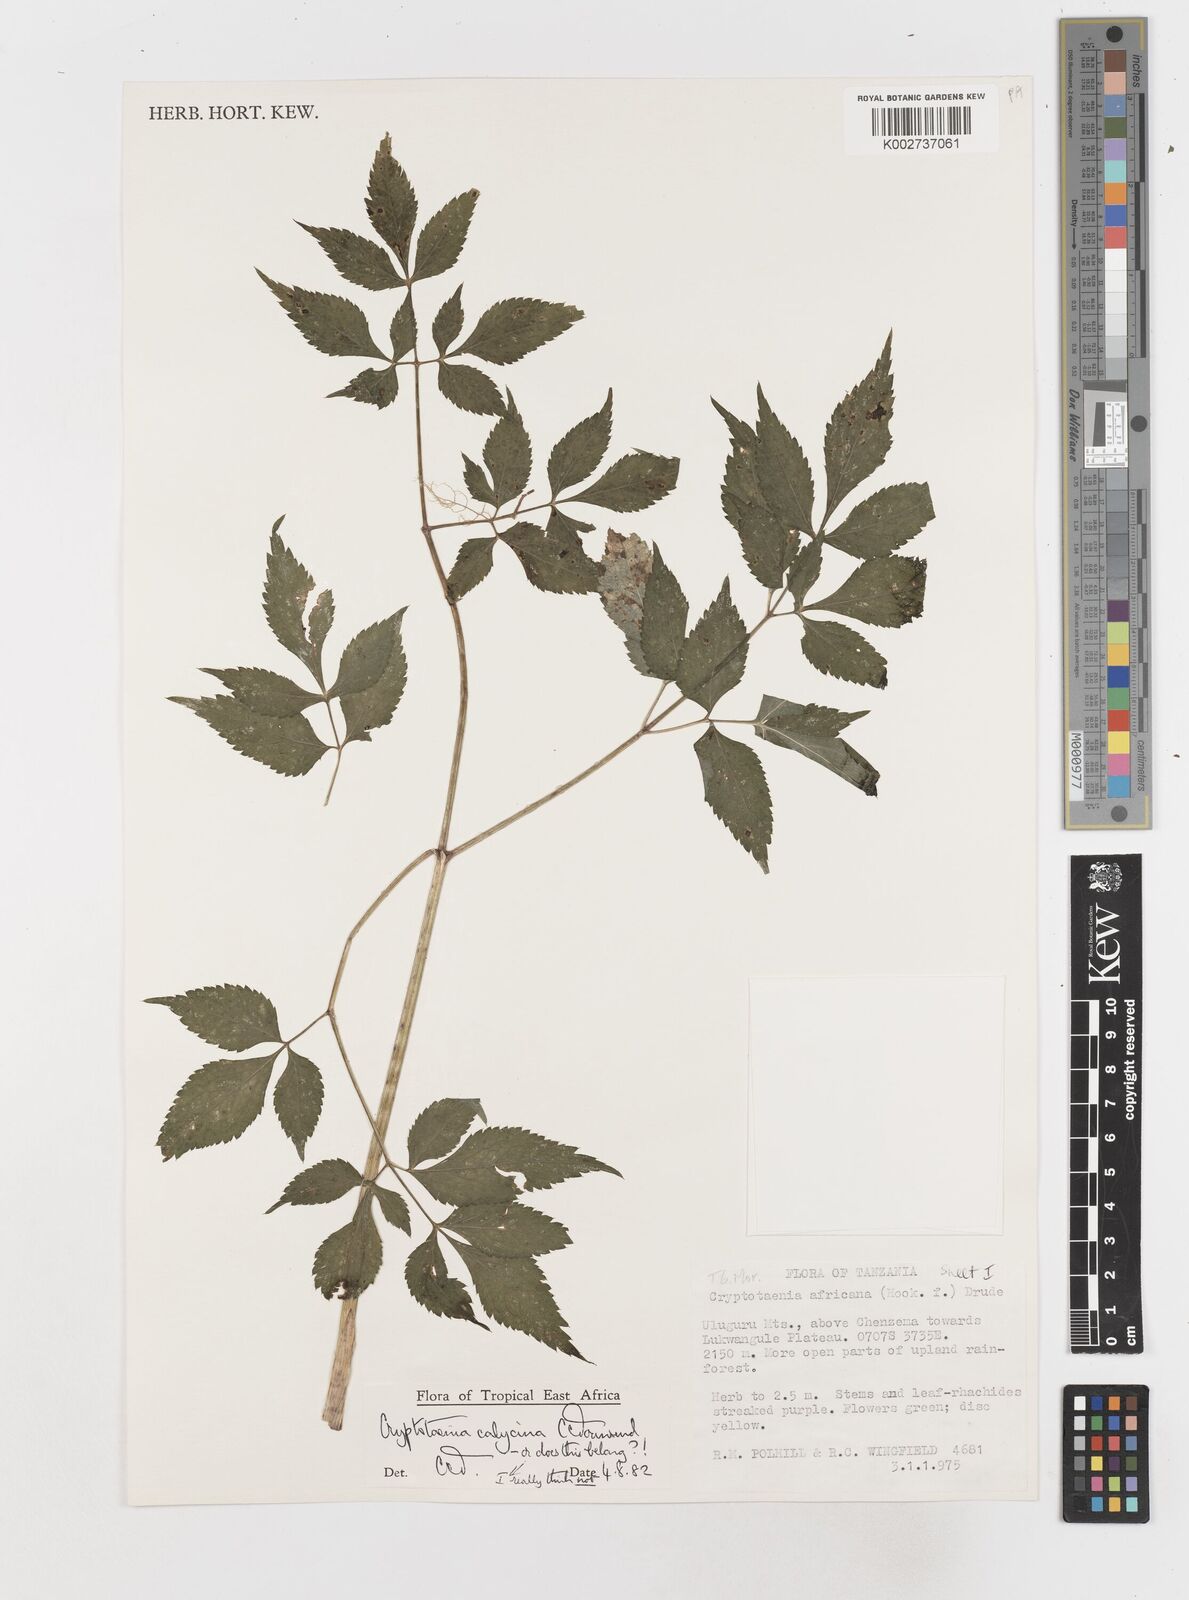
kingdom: Plantae
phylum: Tracheophyta
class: Magnoliopsida
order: Apiales
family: Apiaceae
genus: Cryptotaenia
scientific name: Cryptotaenia calycina
